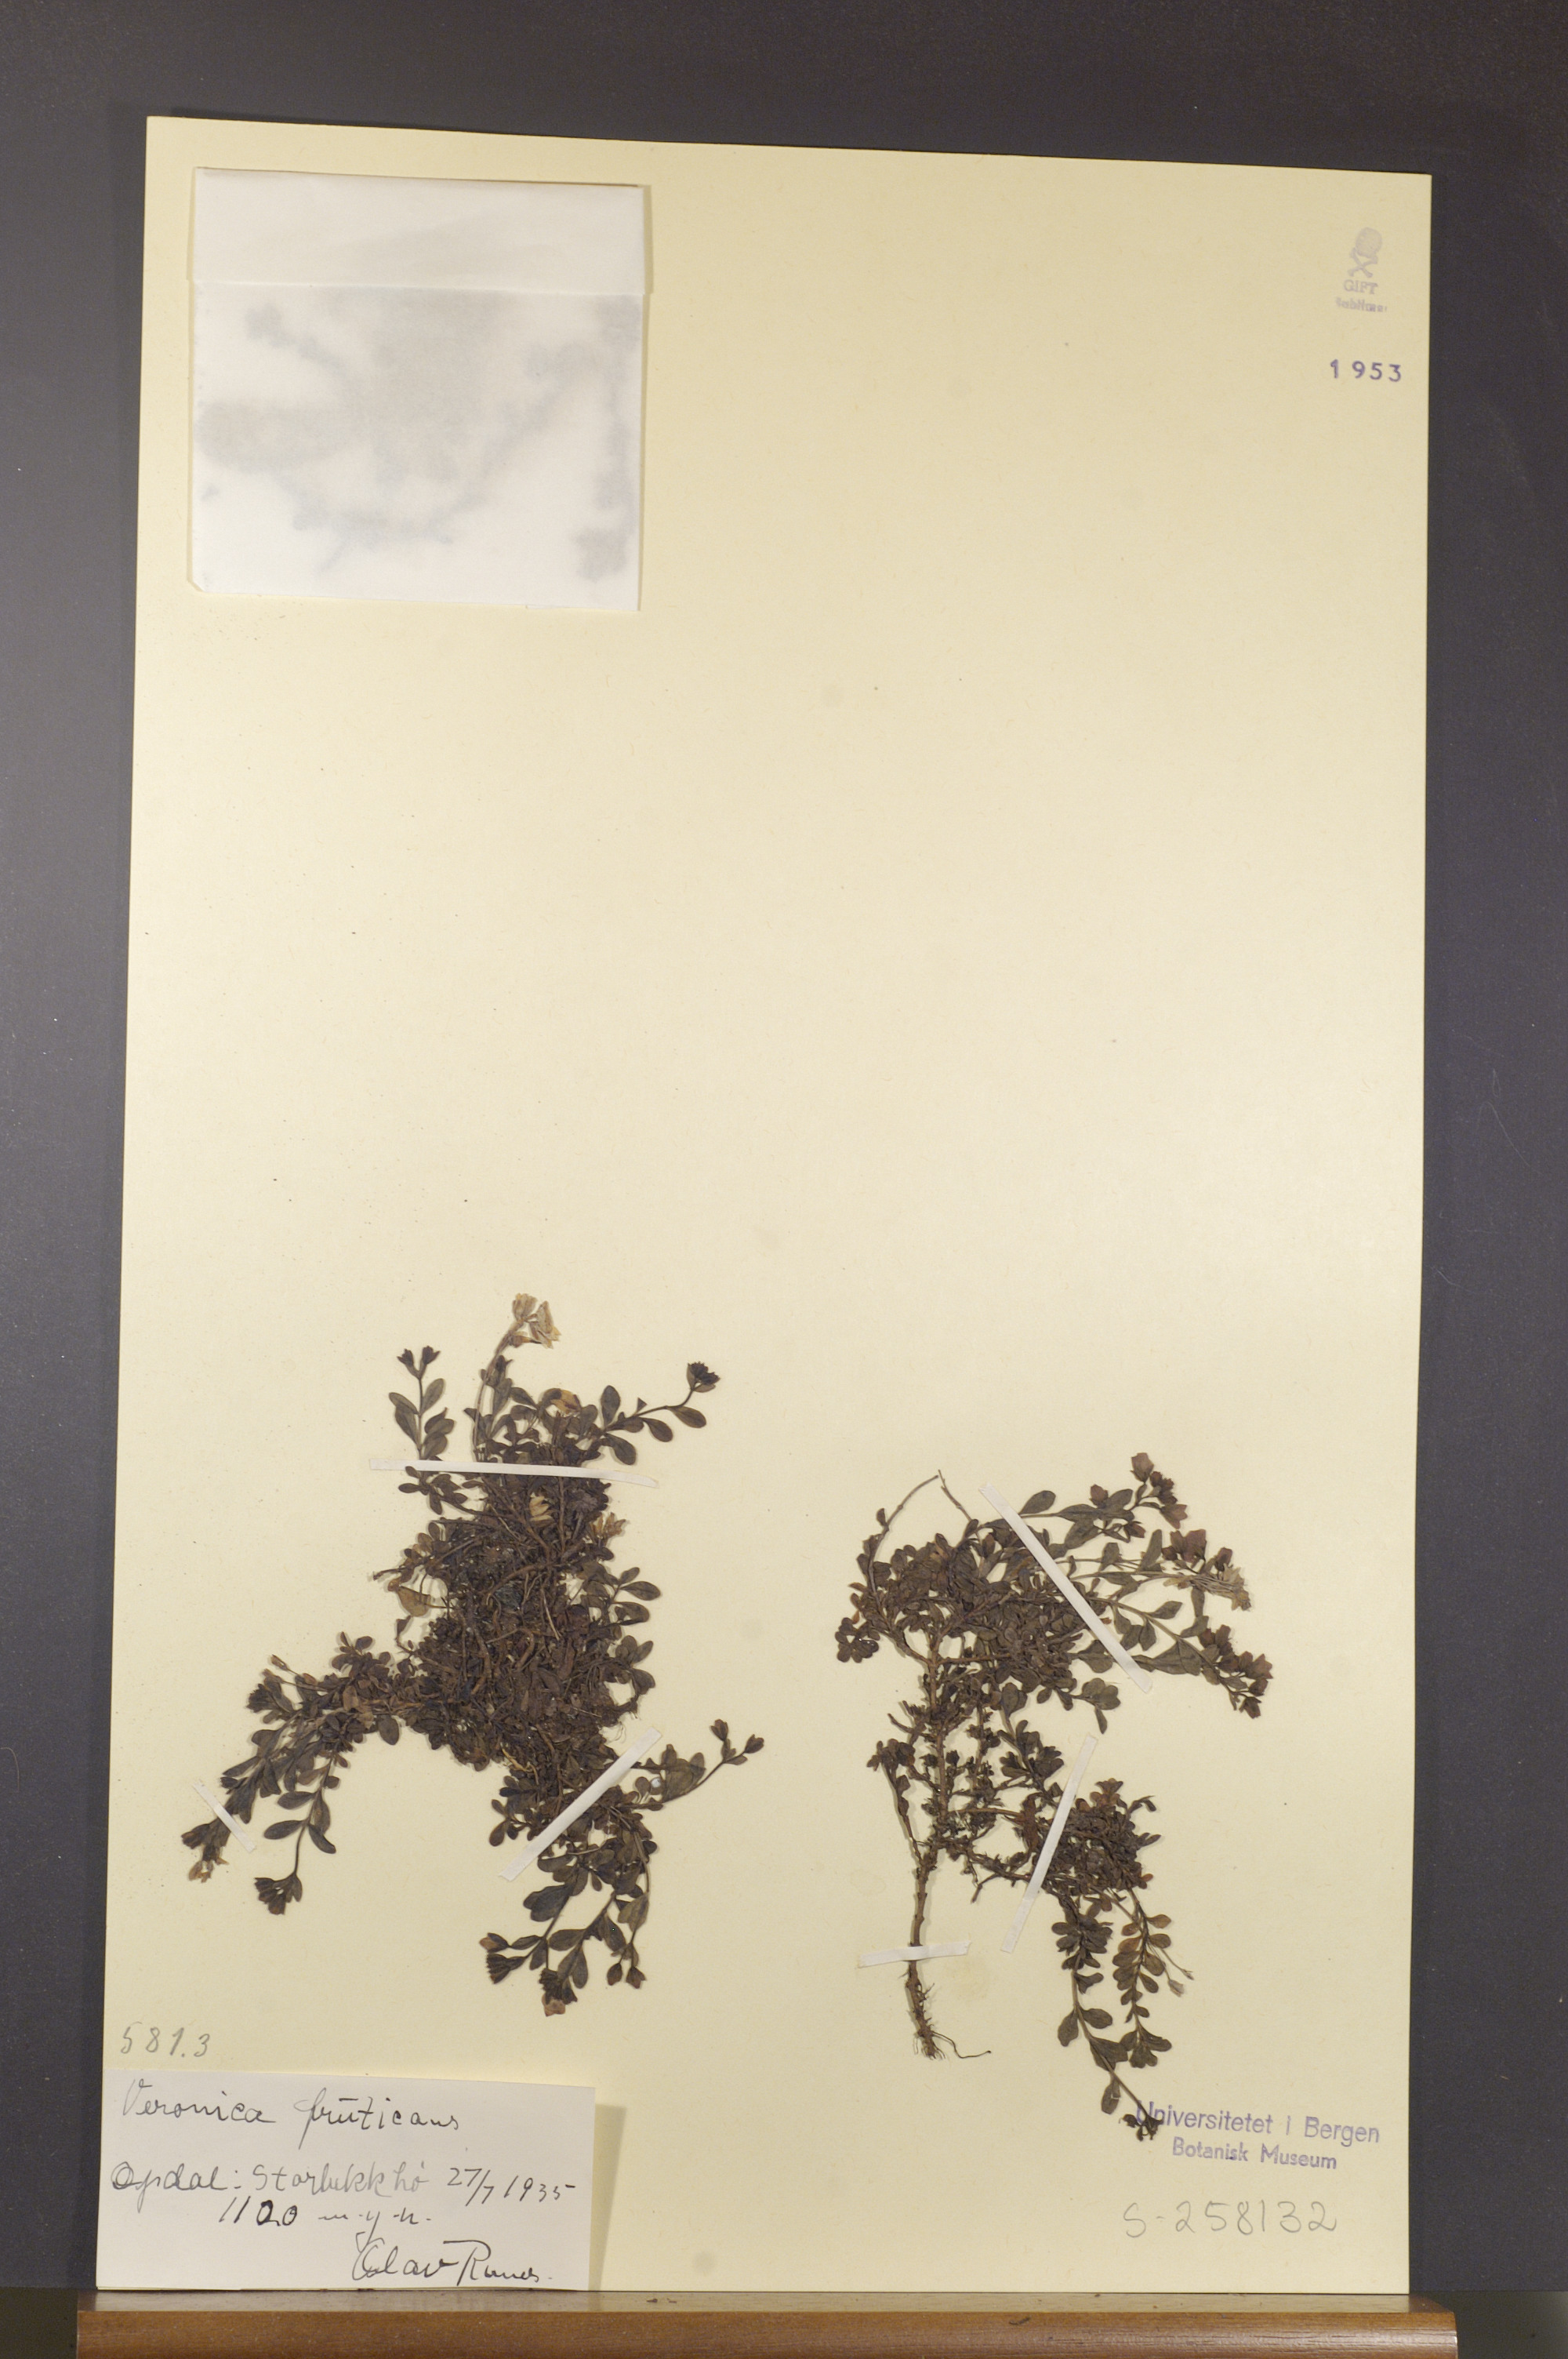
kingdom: Plantae
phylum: Tracheophyta
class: Magnoliopsida
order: Lamiales
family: Plantaginaceae
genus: Veronica
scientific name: Veronica fruticans
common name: Rock speedwell
